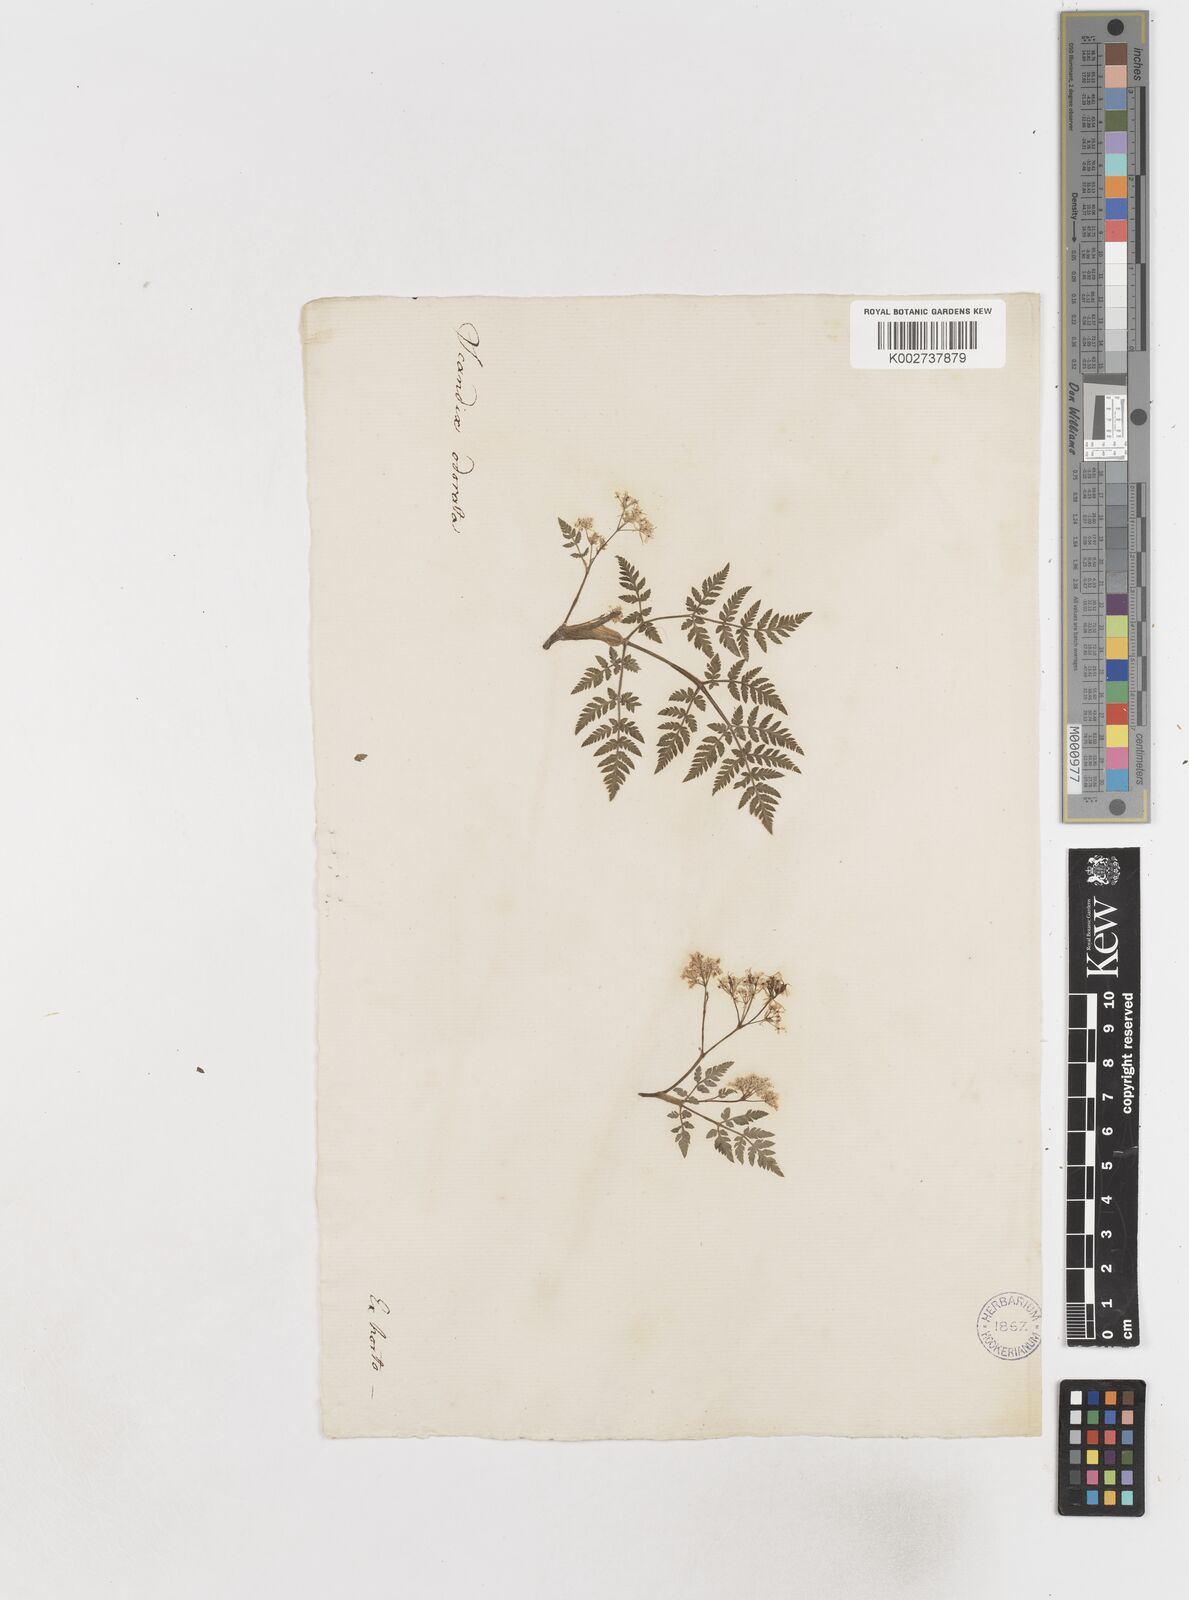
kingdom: Plantae
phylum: Tracheophyta
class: Magnoliopsida
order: Apiales
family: Apiaceae
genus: Myrrhis
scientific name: Myrrhis odorata
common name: Sweet cicely
